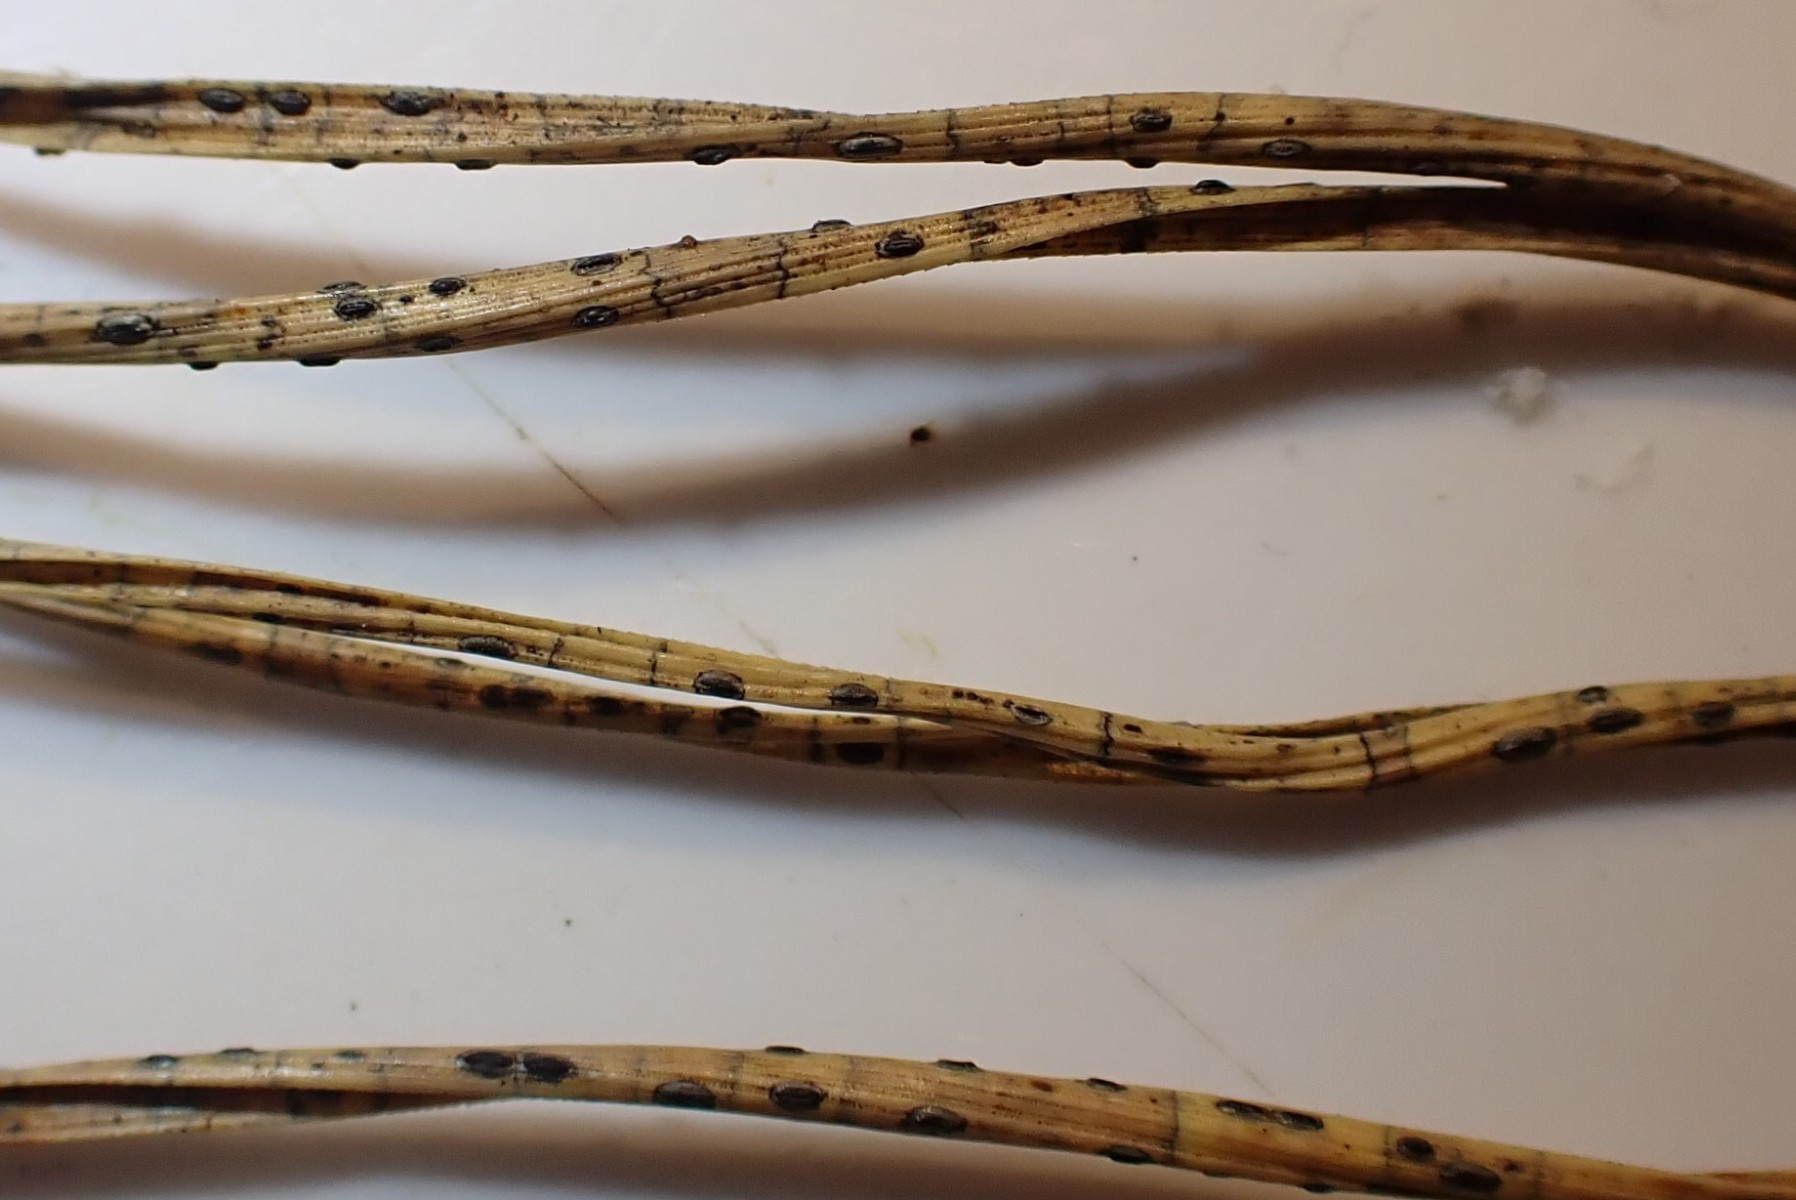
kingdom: Fungi
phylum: Ascomycota
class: Leotiomycetes
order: Rhytismatales
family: Rhytismataceae
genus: Lophodermium
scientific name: Lophodermium pinastri
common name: fyrre-fureplet
